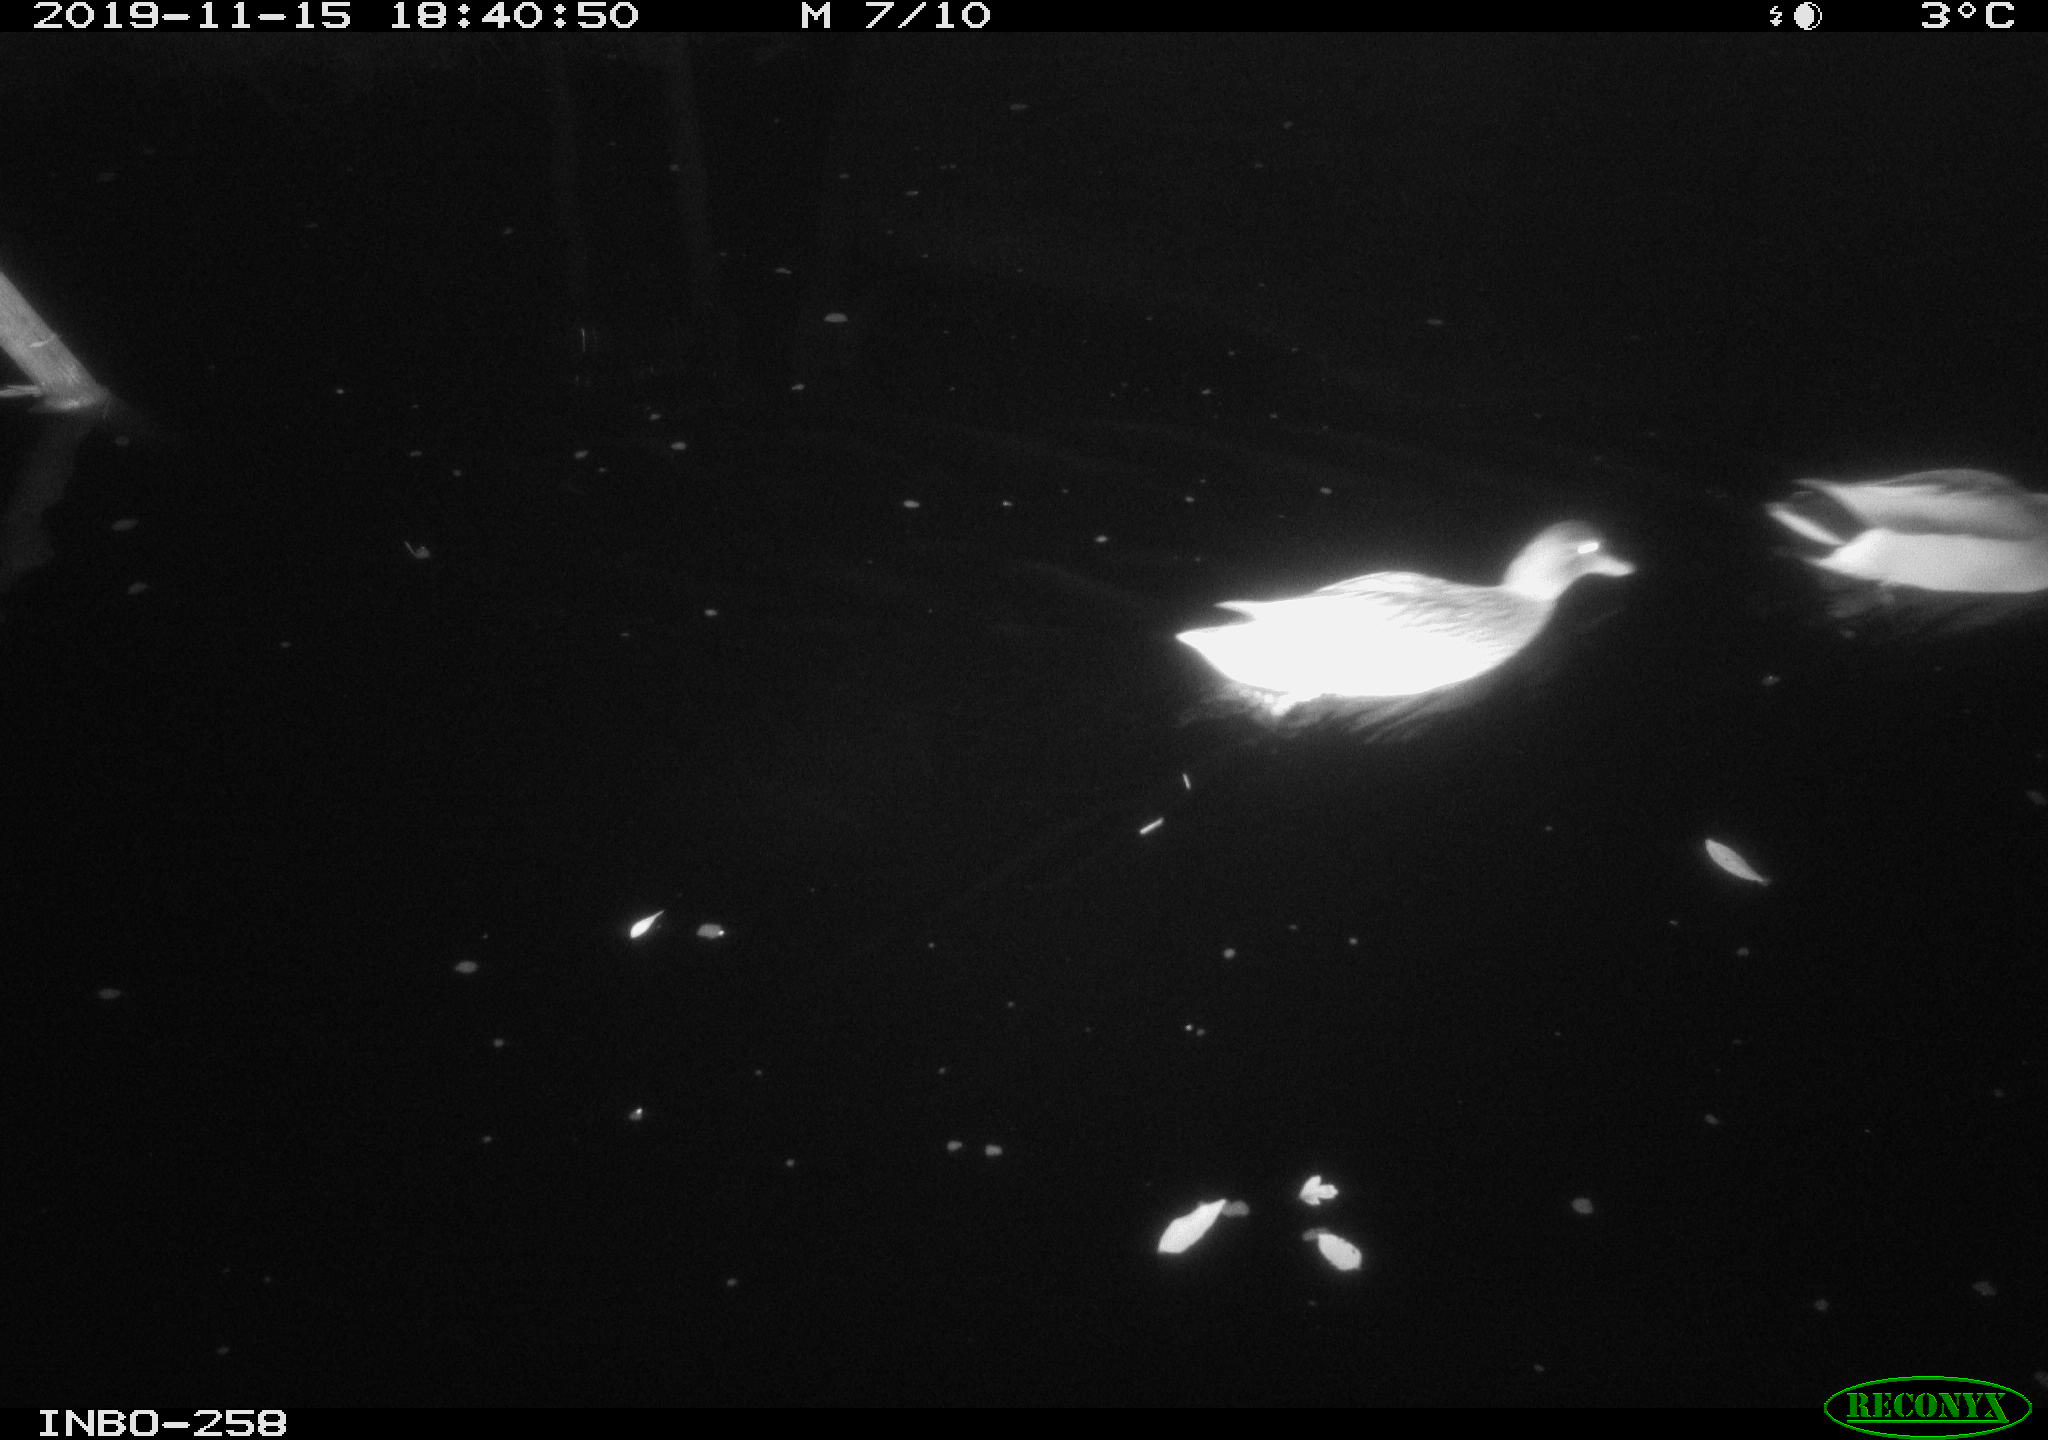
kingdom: Animalia
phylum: Chordata
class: Aves
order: Anseriformes
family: Anatidae
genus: Anas
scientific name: Anas platyrhynchos
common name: Mallard
